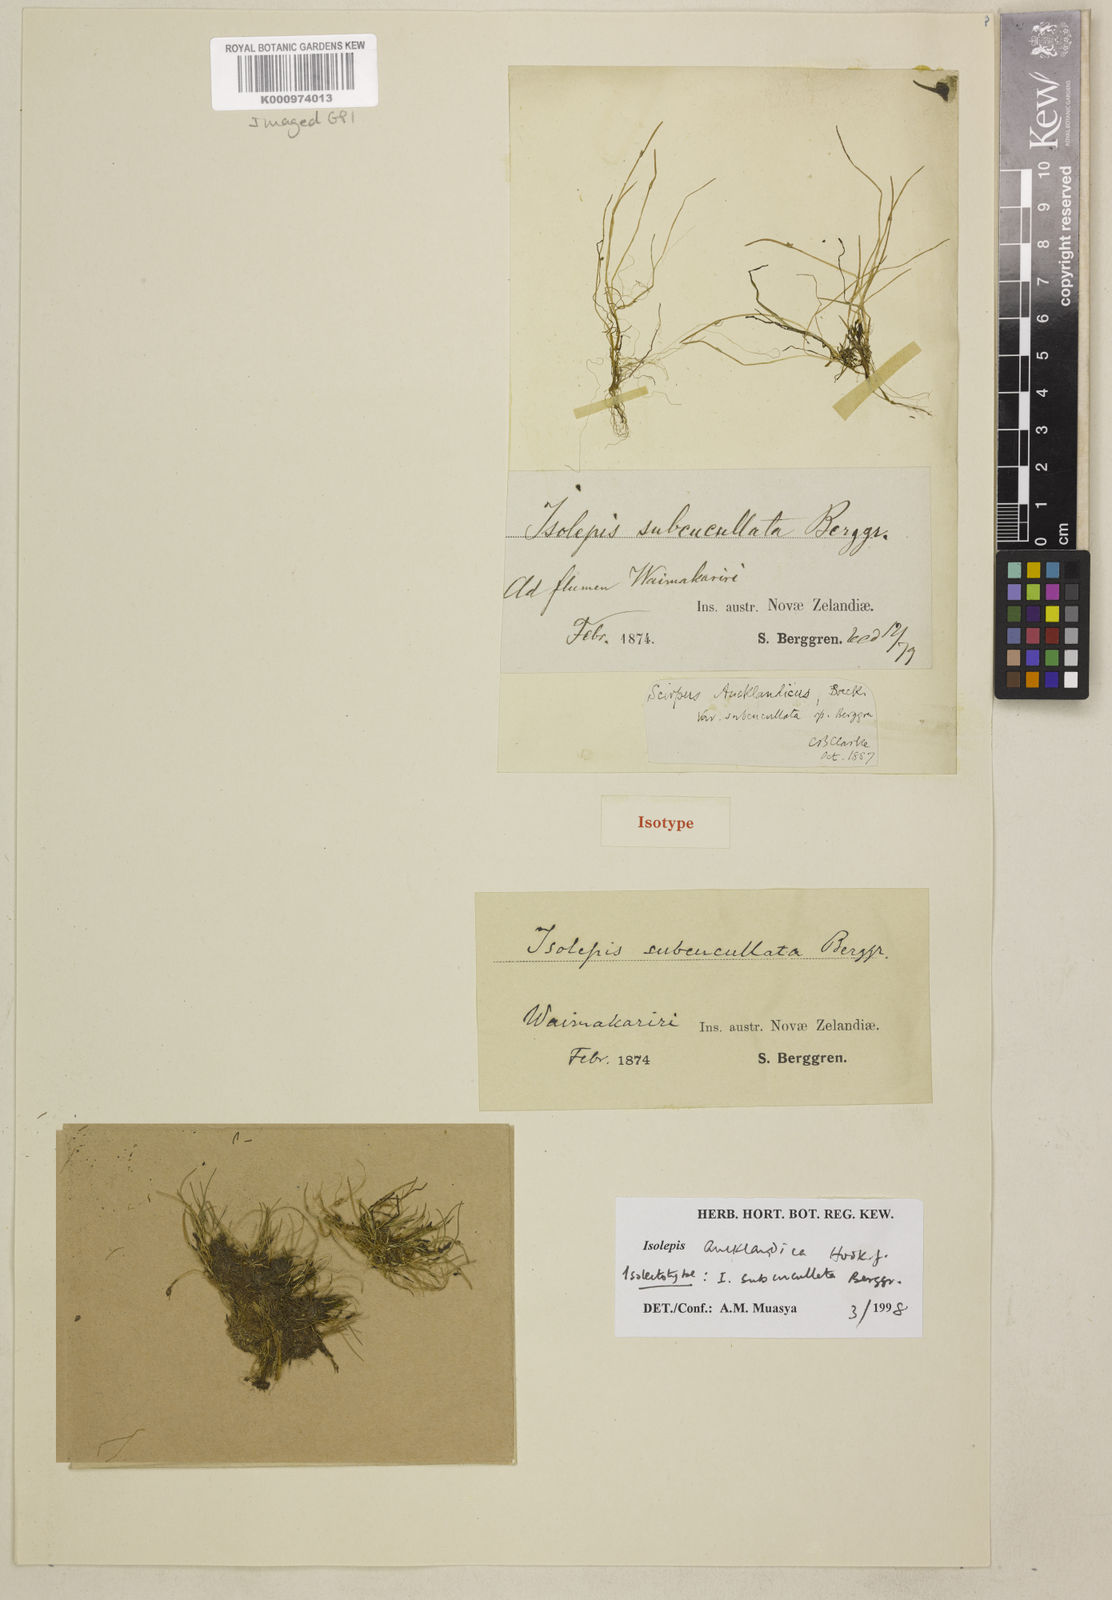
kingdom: Plantae
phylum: Tracheophyta
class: Liliopsida
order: Poales
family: Cyperaceae
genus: Isolepis
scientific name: Isolepis aucklandica
